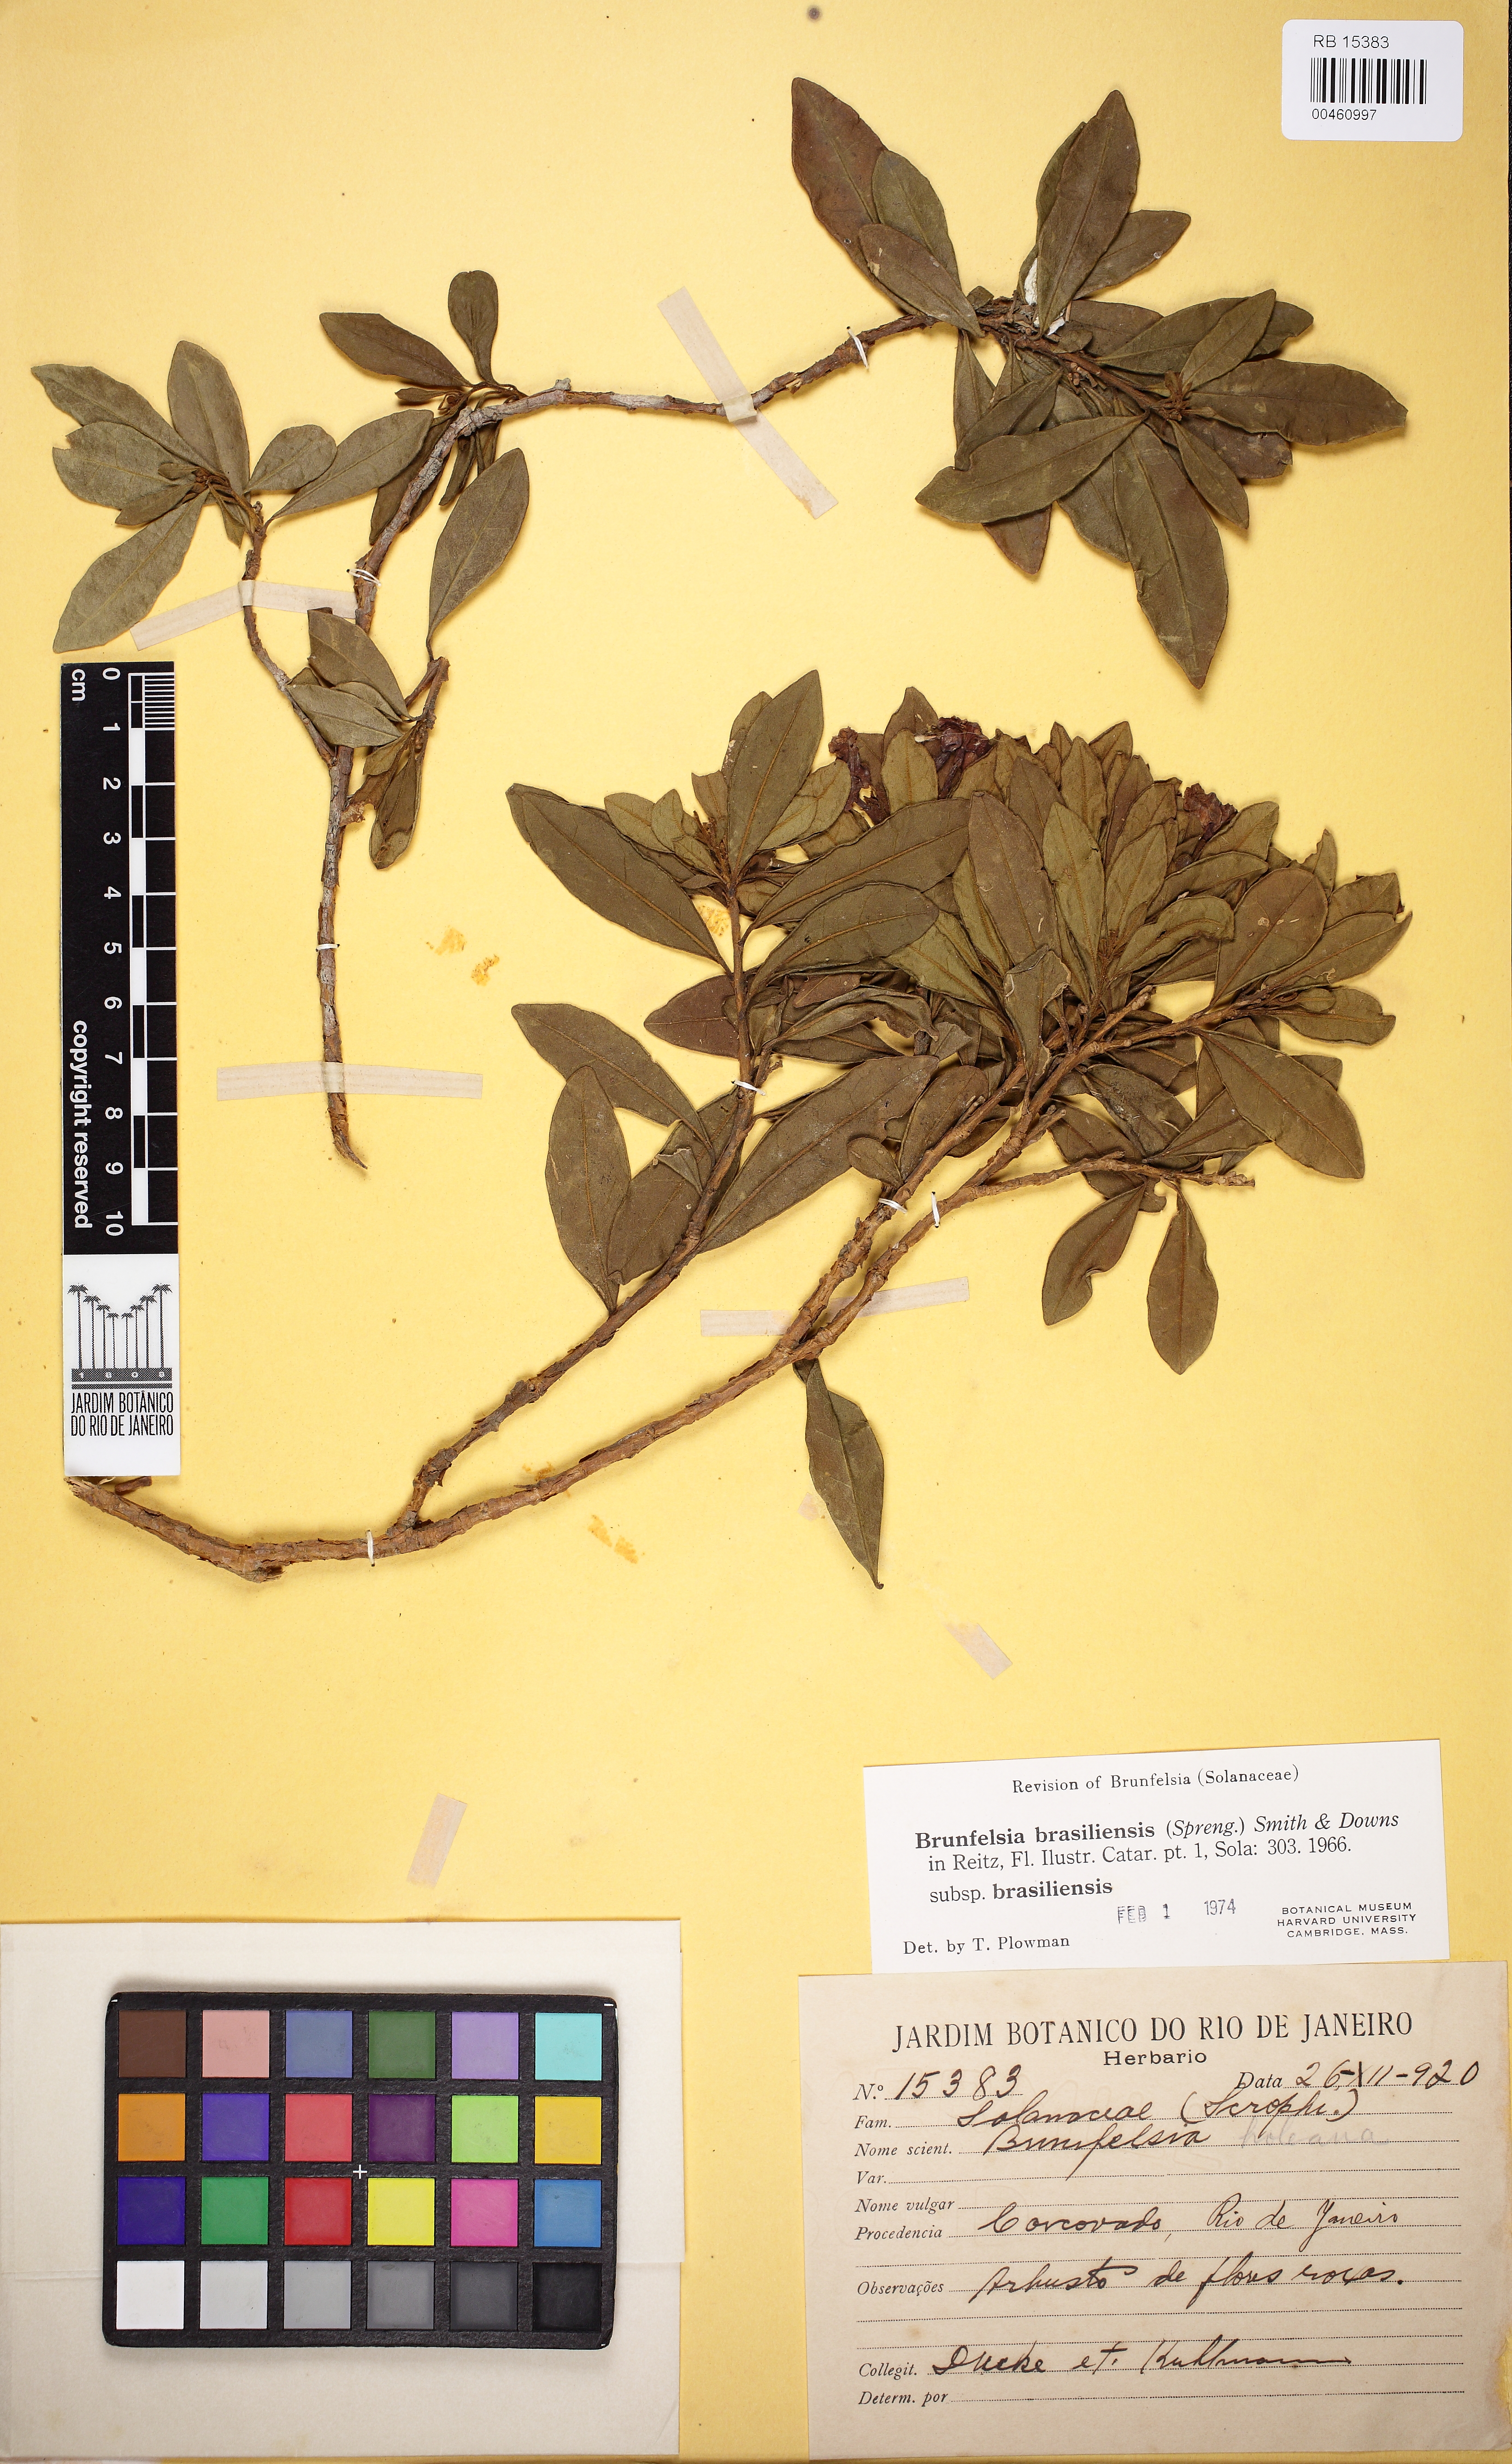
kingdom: Plantae
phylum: Tracheophyta
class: Magnoliopsida
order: Solanales
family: Solanaceae
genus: Brunfelsia
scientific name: Brunfelsia brasiliensis
